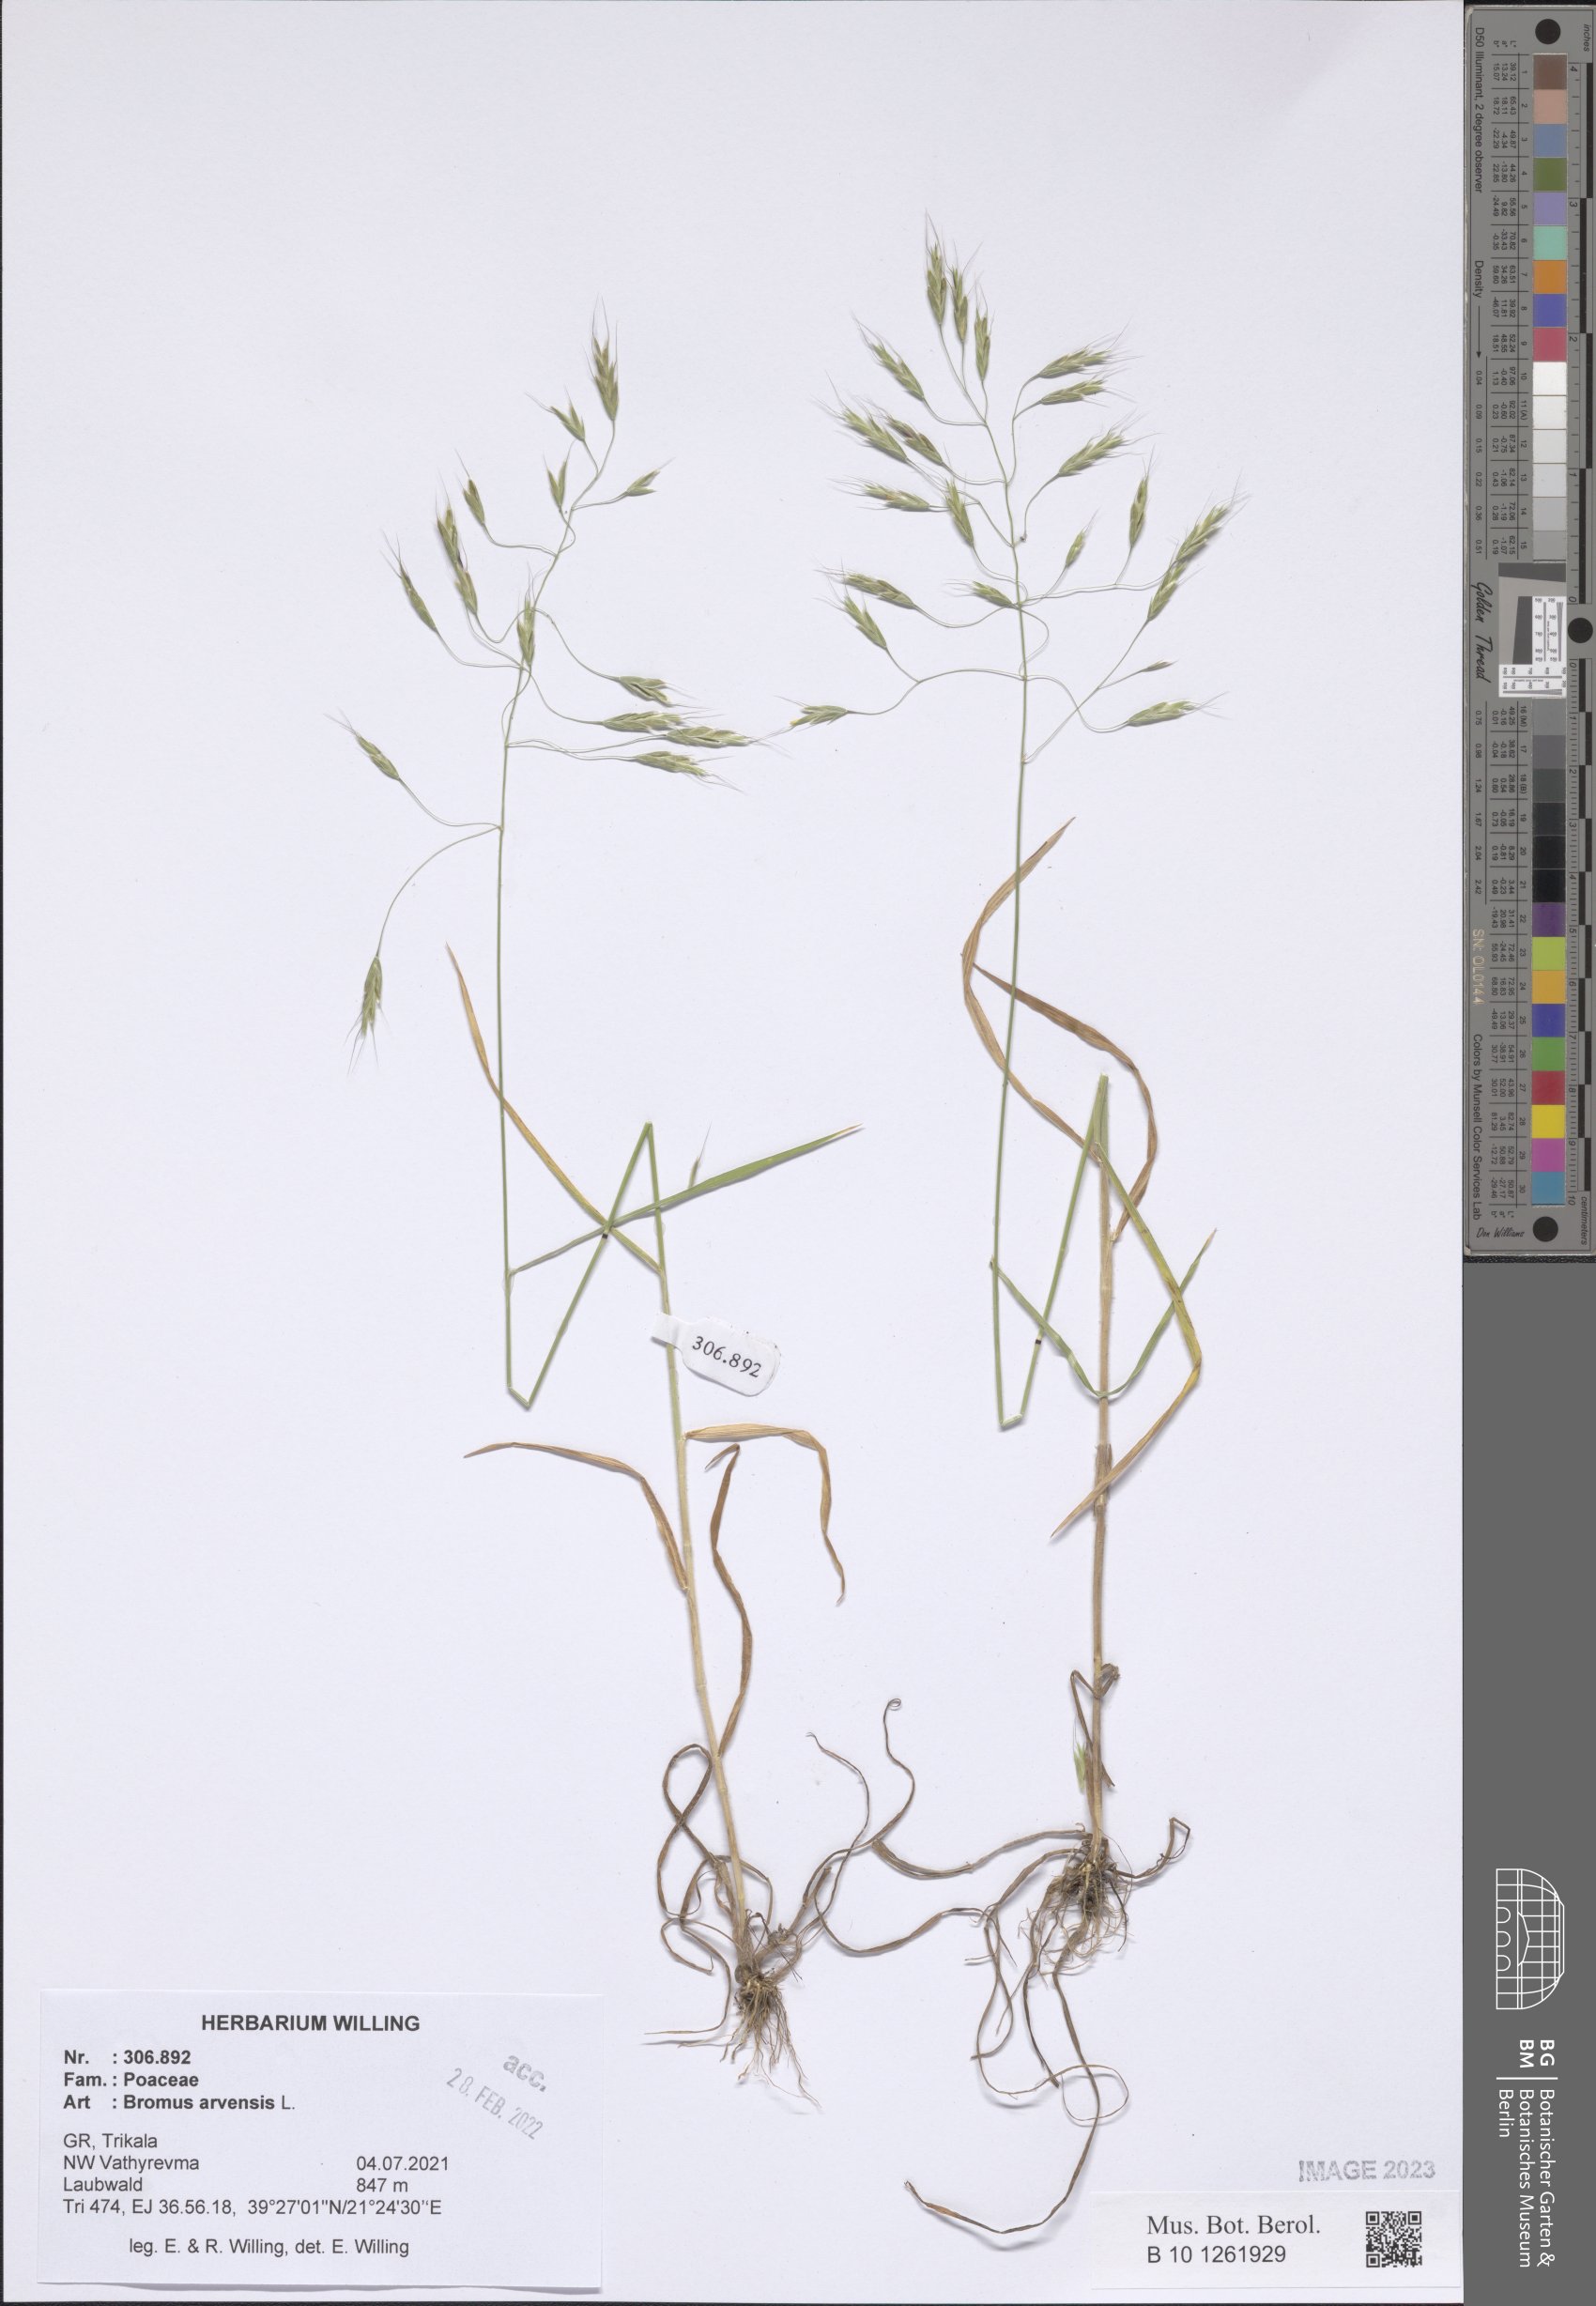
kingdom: Plantae
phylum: Tracheophyta
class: Liliopsida
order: Poales
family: Poaceae
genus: Bromus
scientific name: Bromus arvensis
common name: Field brome
